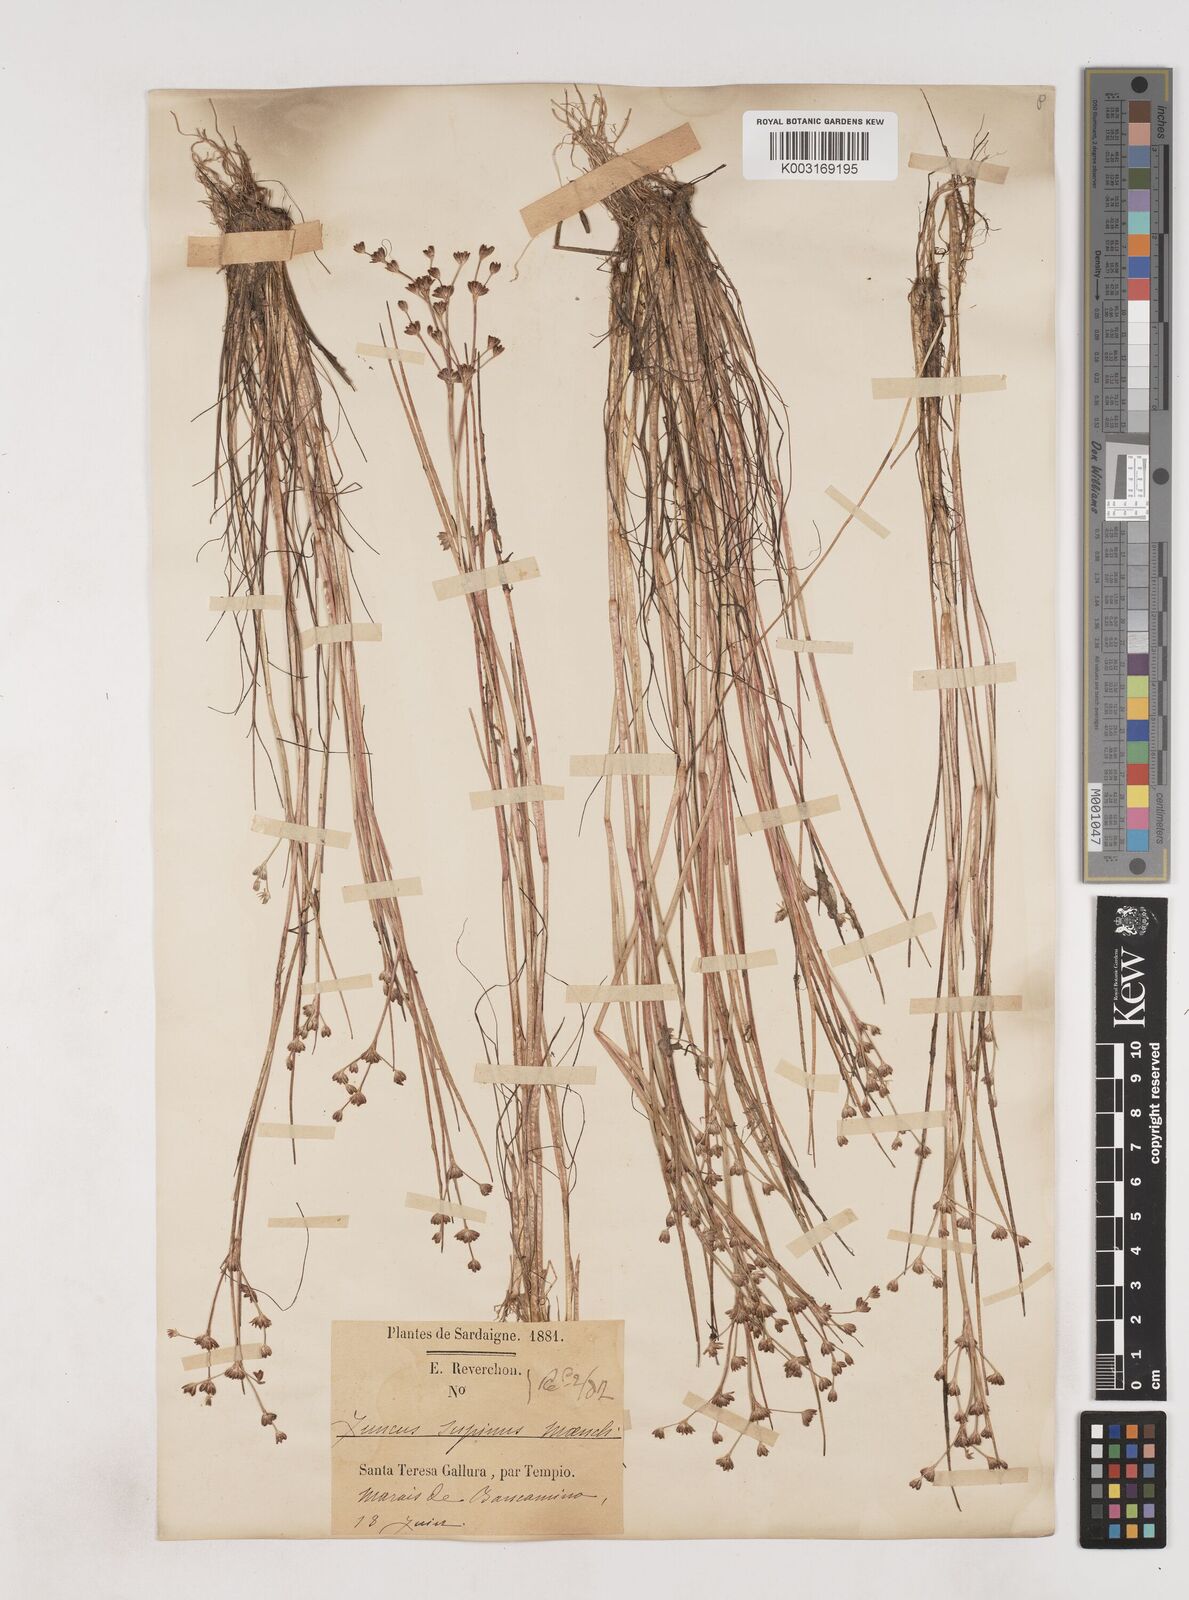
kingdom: Plantae
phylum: Tracheophyta
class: Liliopsida
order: Poales
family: Juncaceae
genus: Juncus
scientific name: Juncus bulbosus
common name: Bulbous rush
